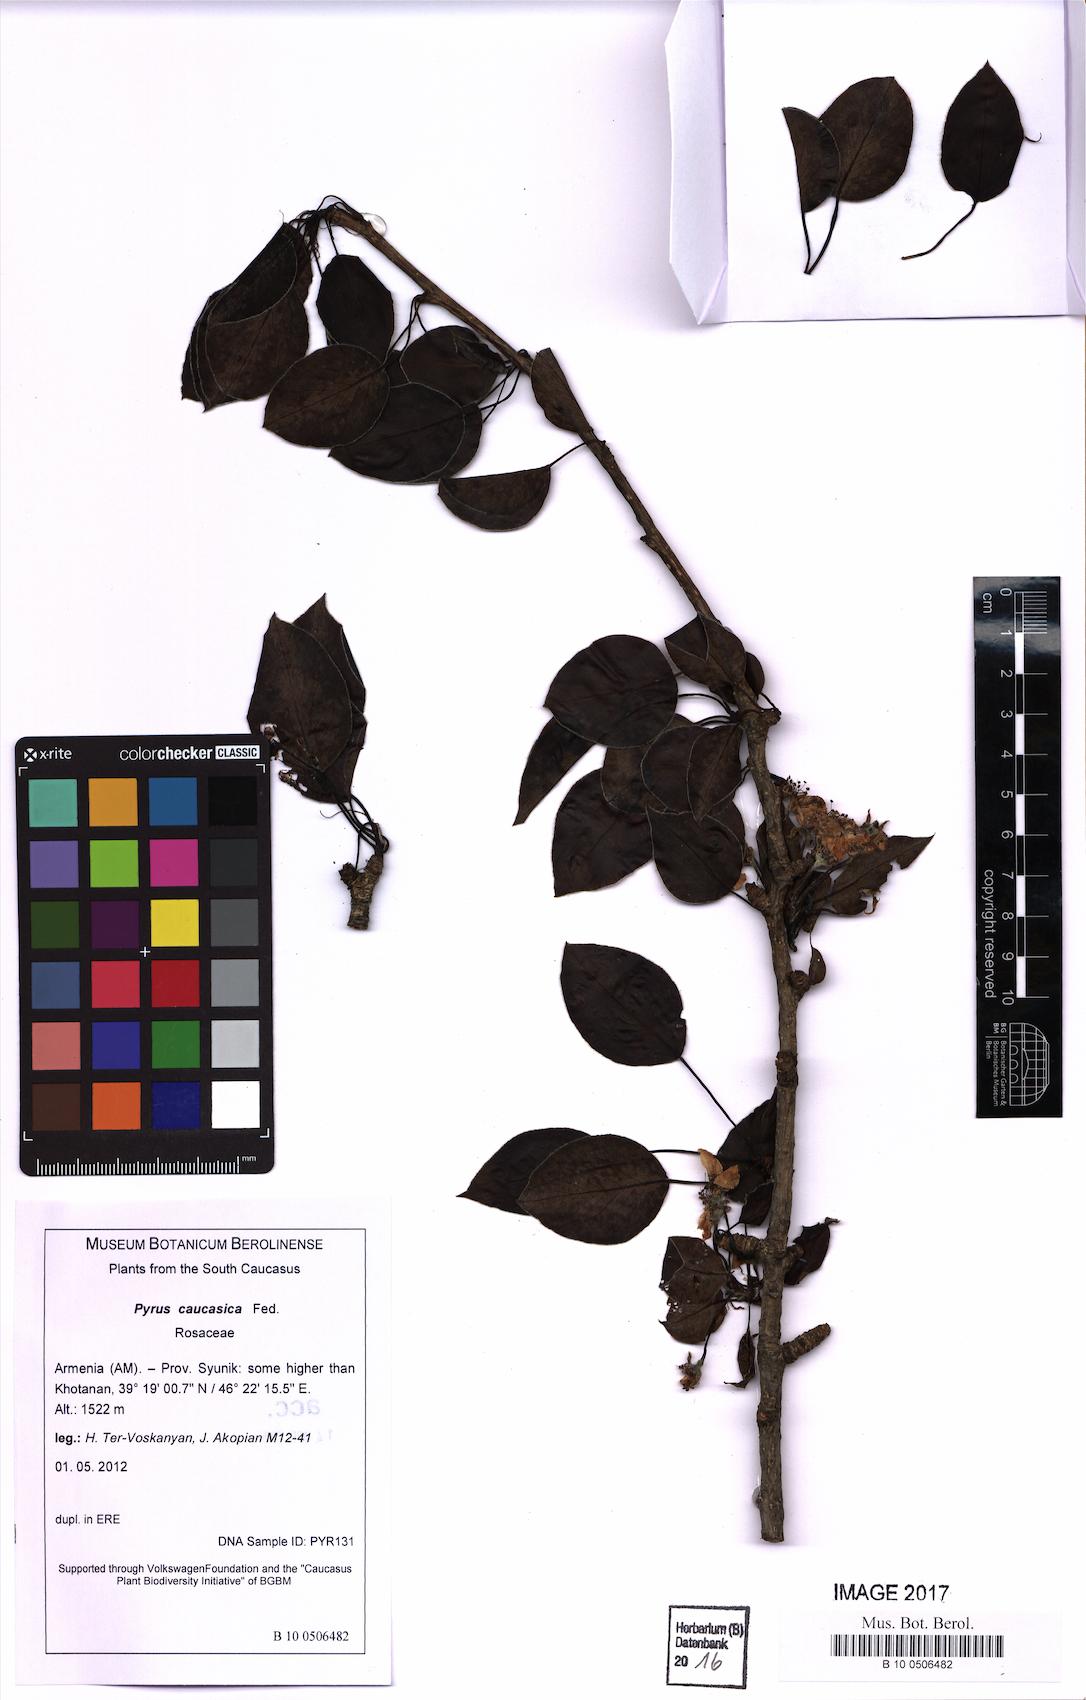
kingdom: Plantae
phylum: Tracheophyta
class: Magnoliopsida
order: Rosales
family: Rosaceae
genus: Pyrus
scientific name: Pyrus communis
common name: Pear
